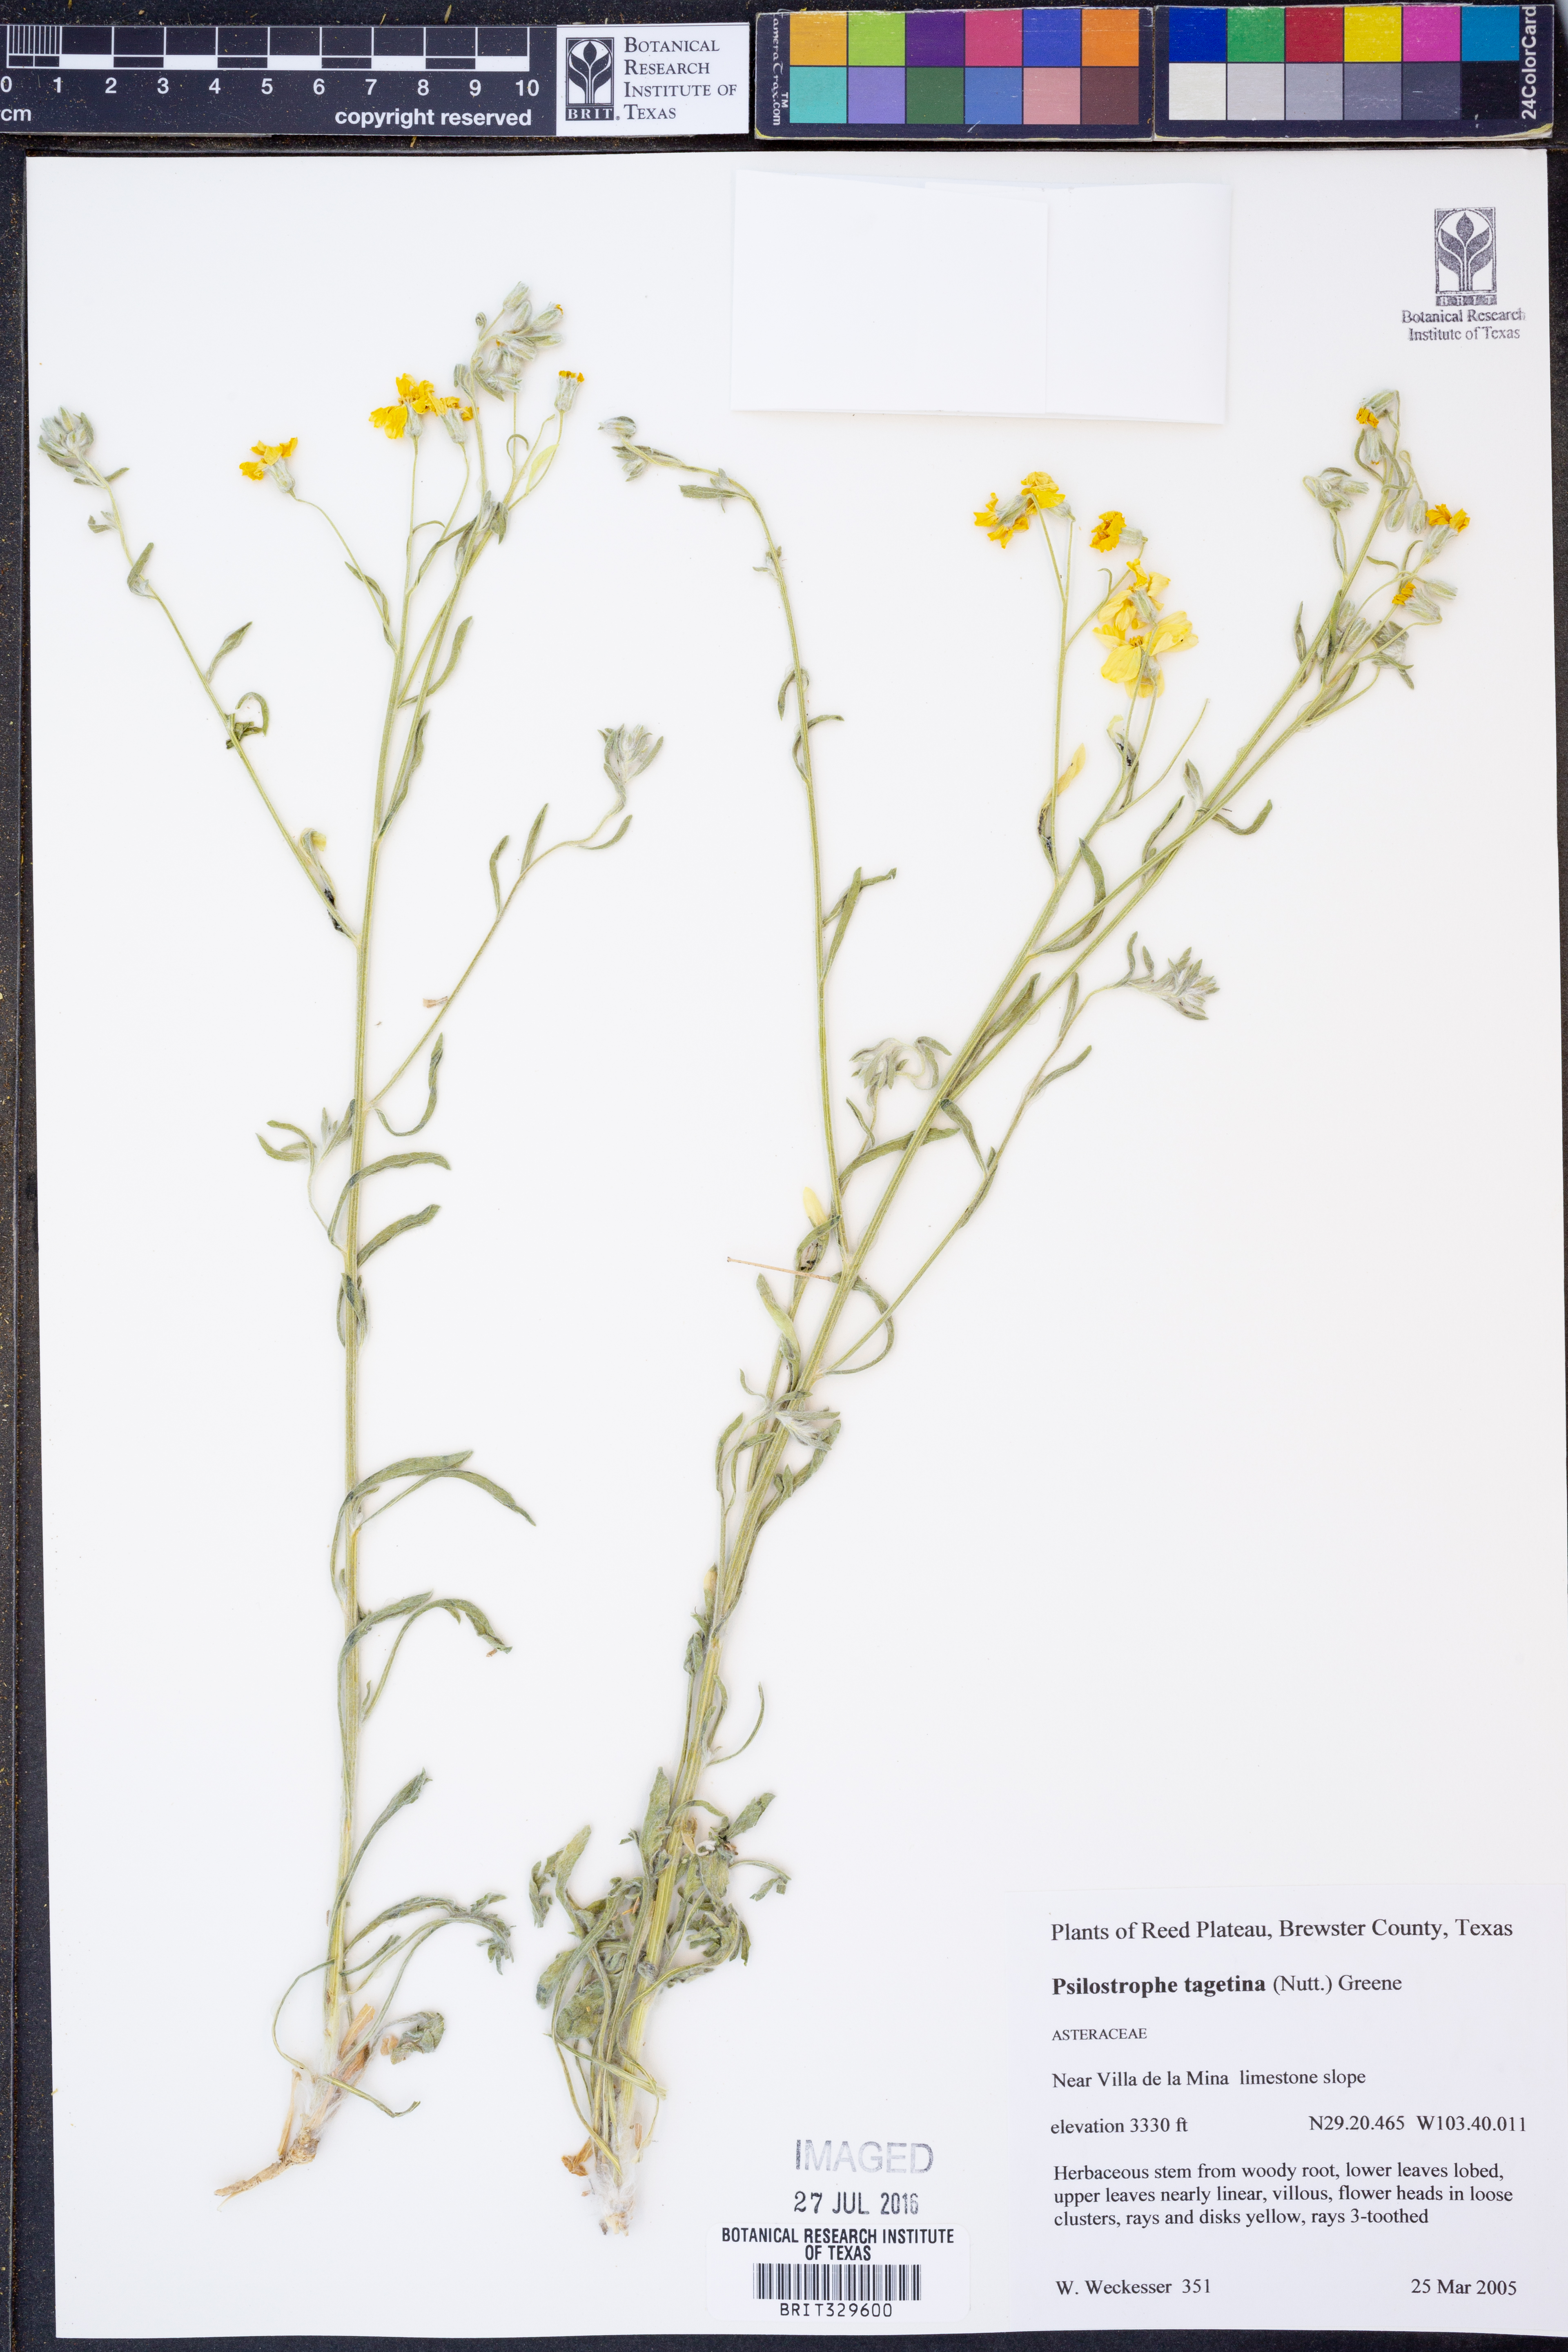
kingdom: Plantae
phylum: Tracheophyta
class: Magnoliopsida
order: Asterales
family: Asteraceae
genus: Psilostrophe
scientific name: Psilostrophe tagetina
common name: Marigold paper-flower
